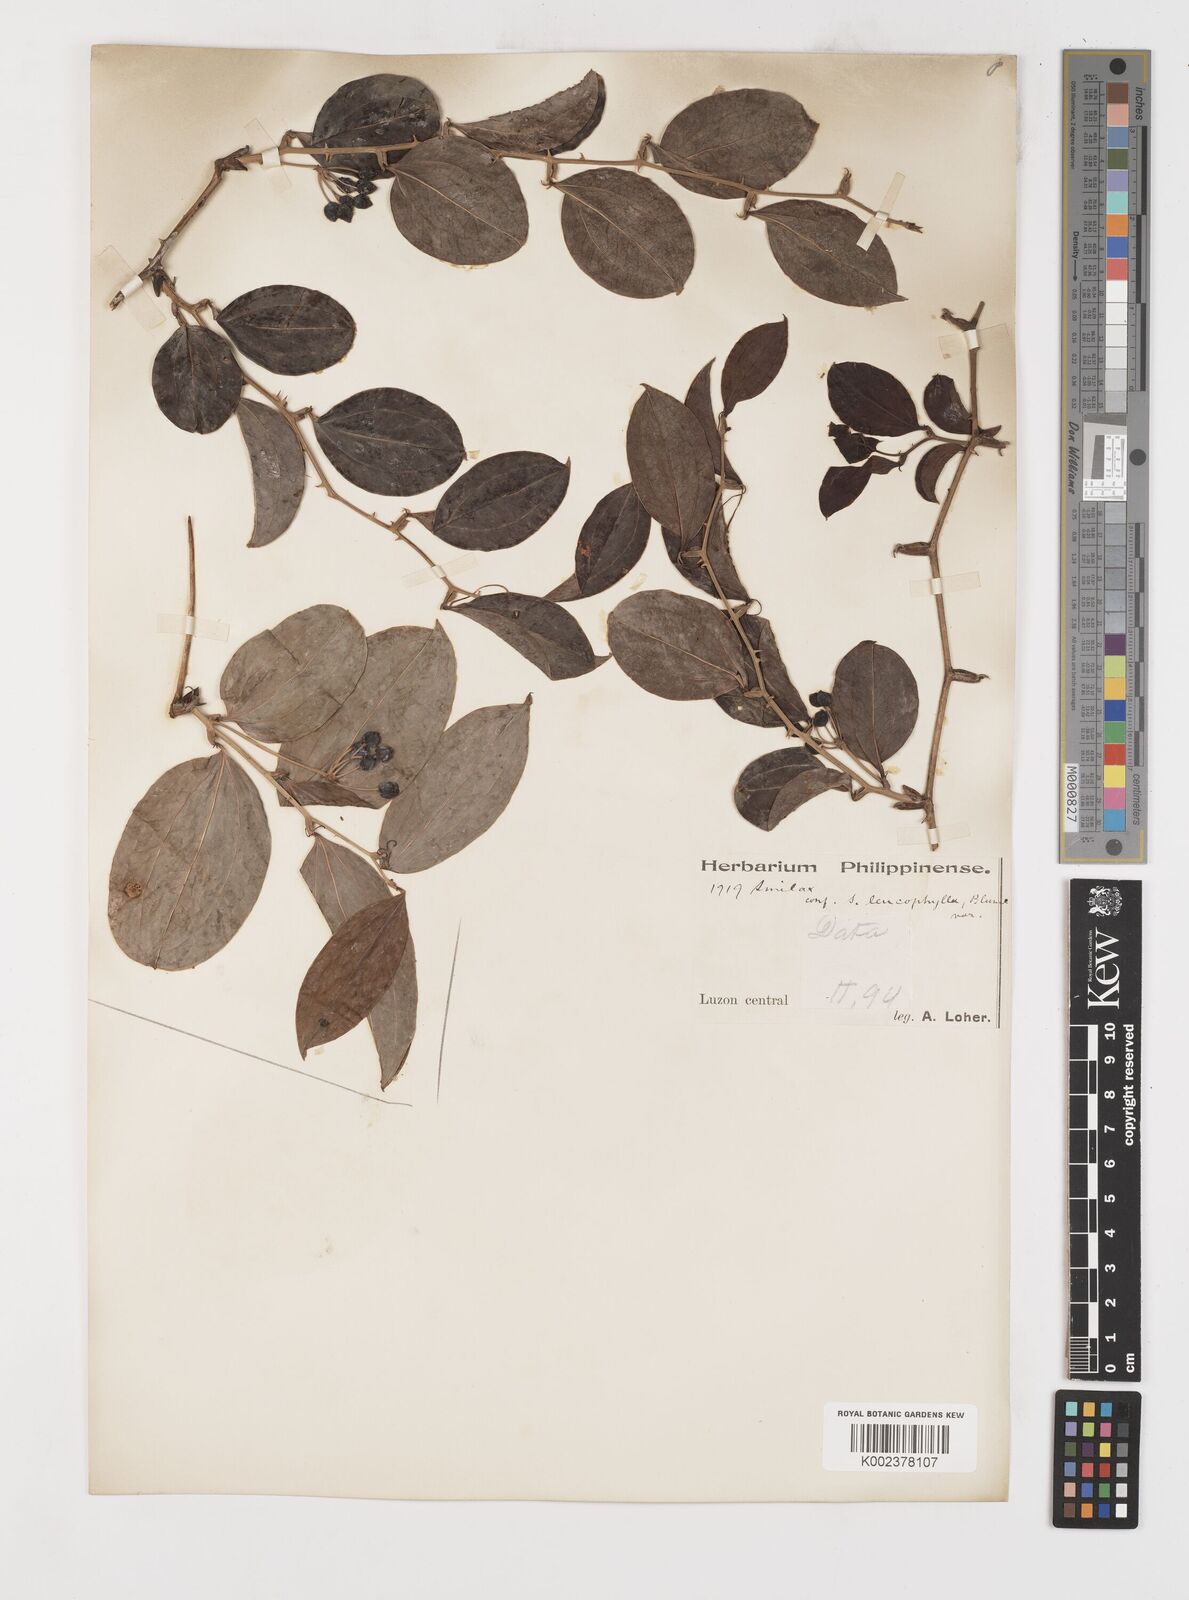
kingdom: Plantae
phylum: Tracheophyta
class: Liliopsida
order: Liliales
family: Smilacaceae
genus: Smilax
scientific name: Smilax
